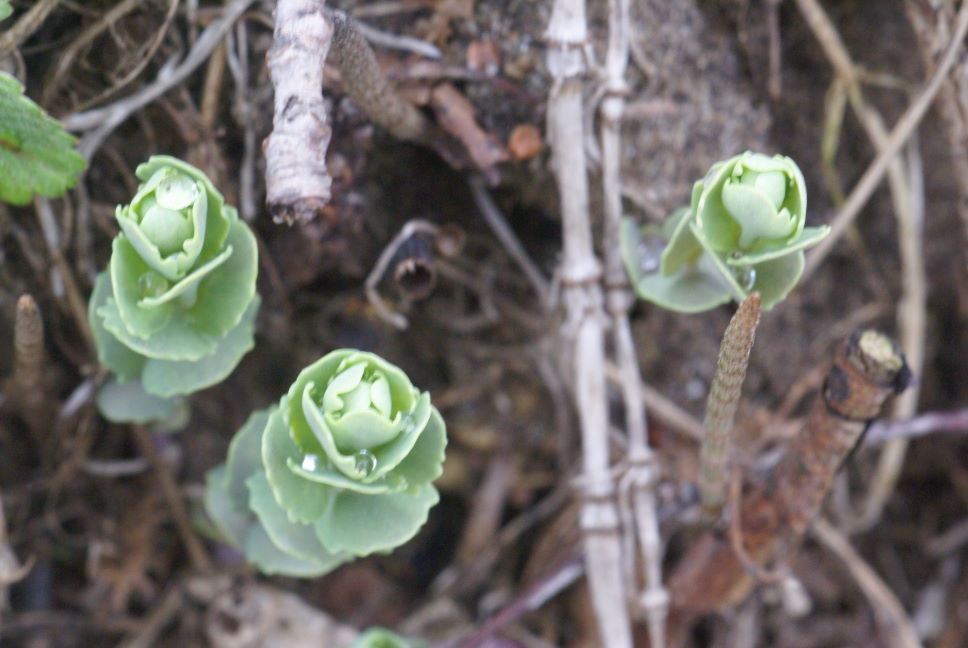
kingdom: Plantae
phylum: Tracheophyta
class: Magnoliopsida
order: Saxifragales
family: Crassulaceae
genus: Hylotelephium
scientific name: Hylotelephium telephium
